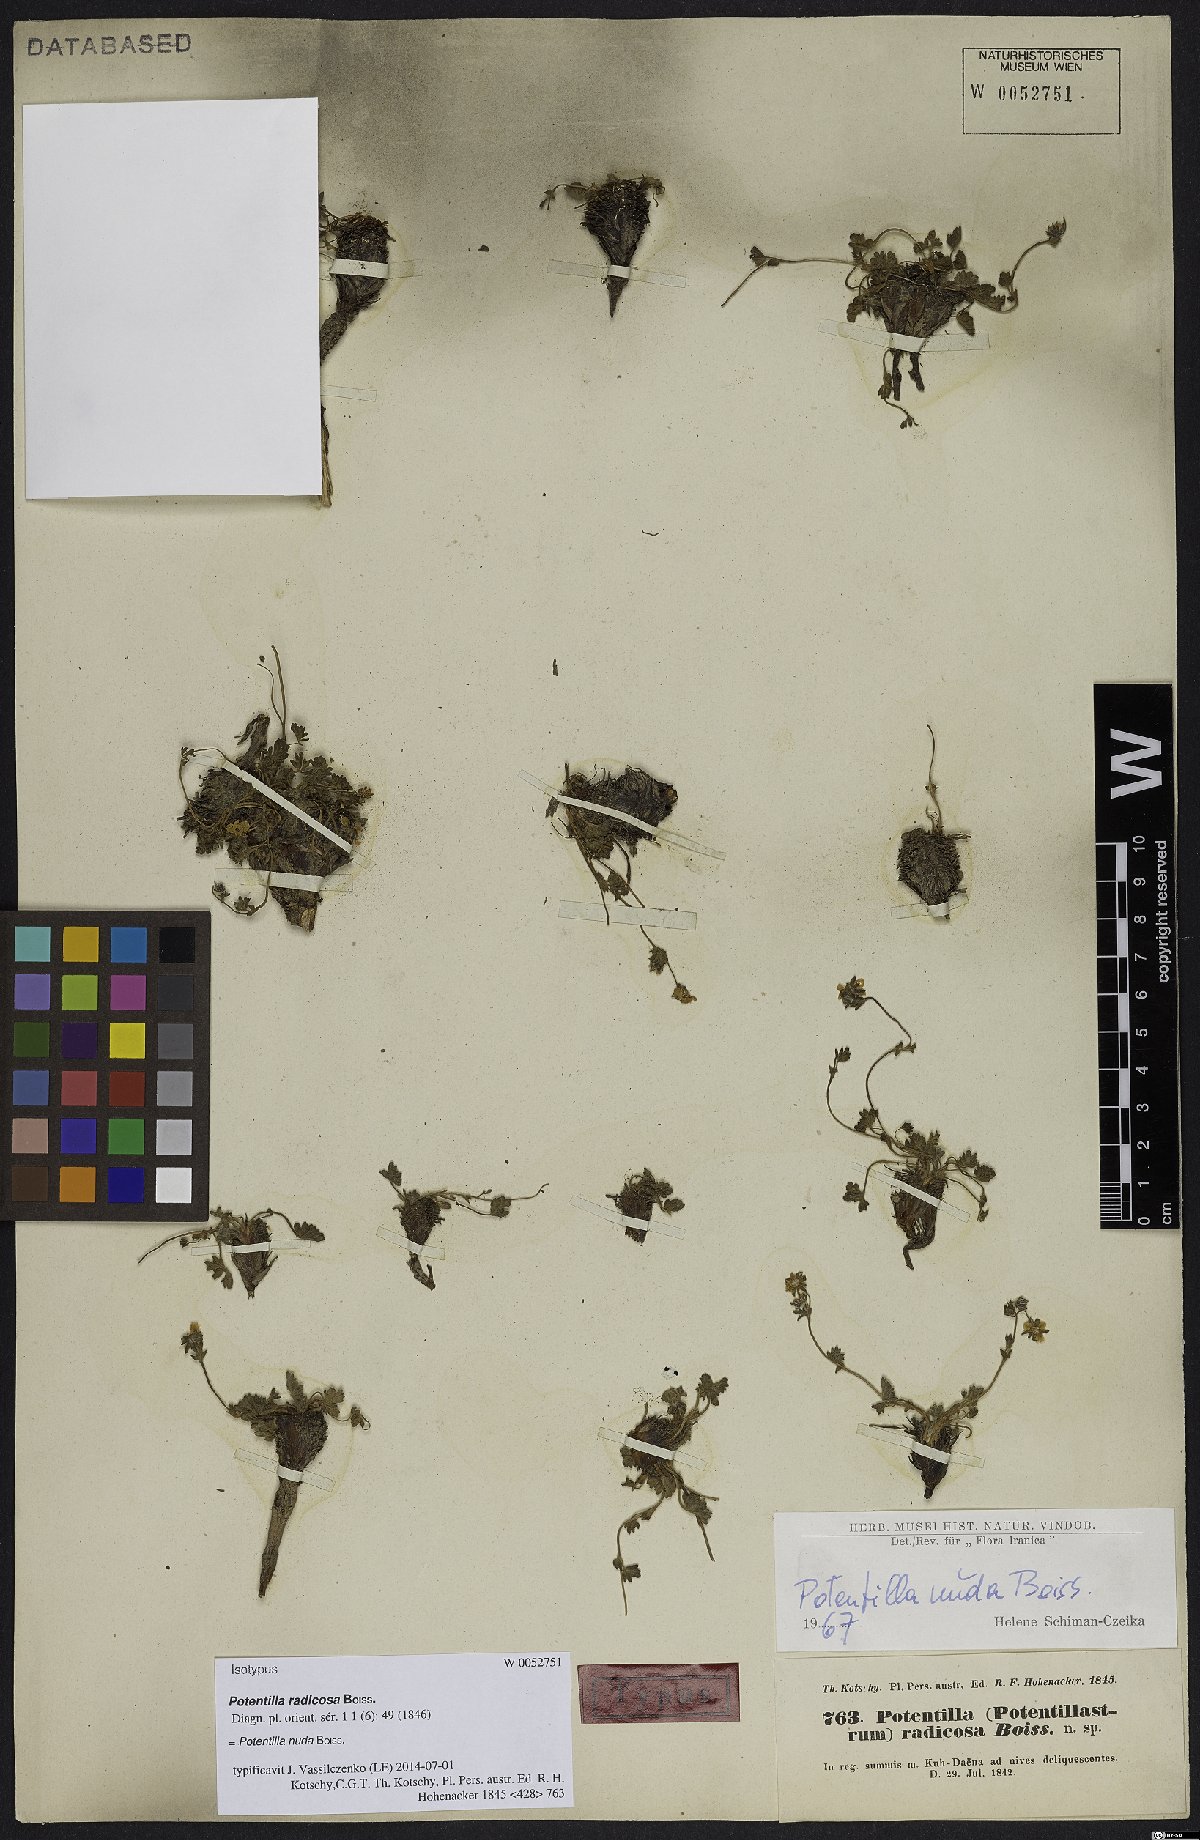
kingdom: Plantae
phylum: Tracheophyta
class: Magnoliopsida
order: Rosales
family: Rosaceae
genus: Potentilla
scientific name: Potentilla nuda
